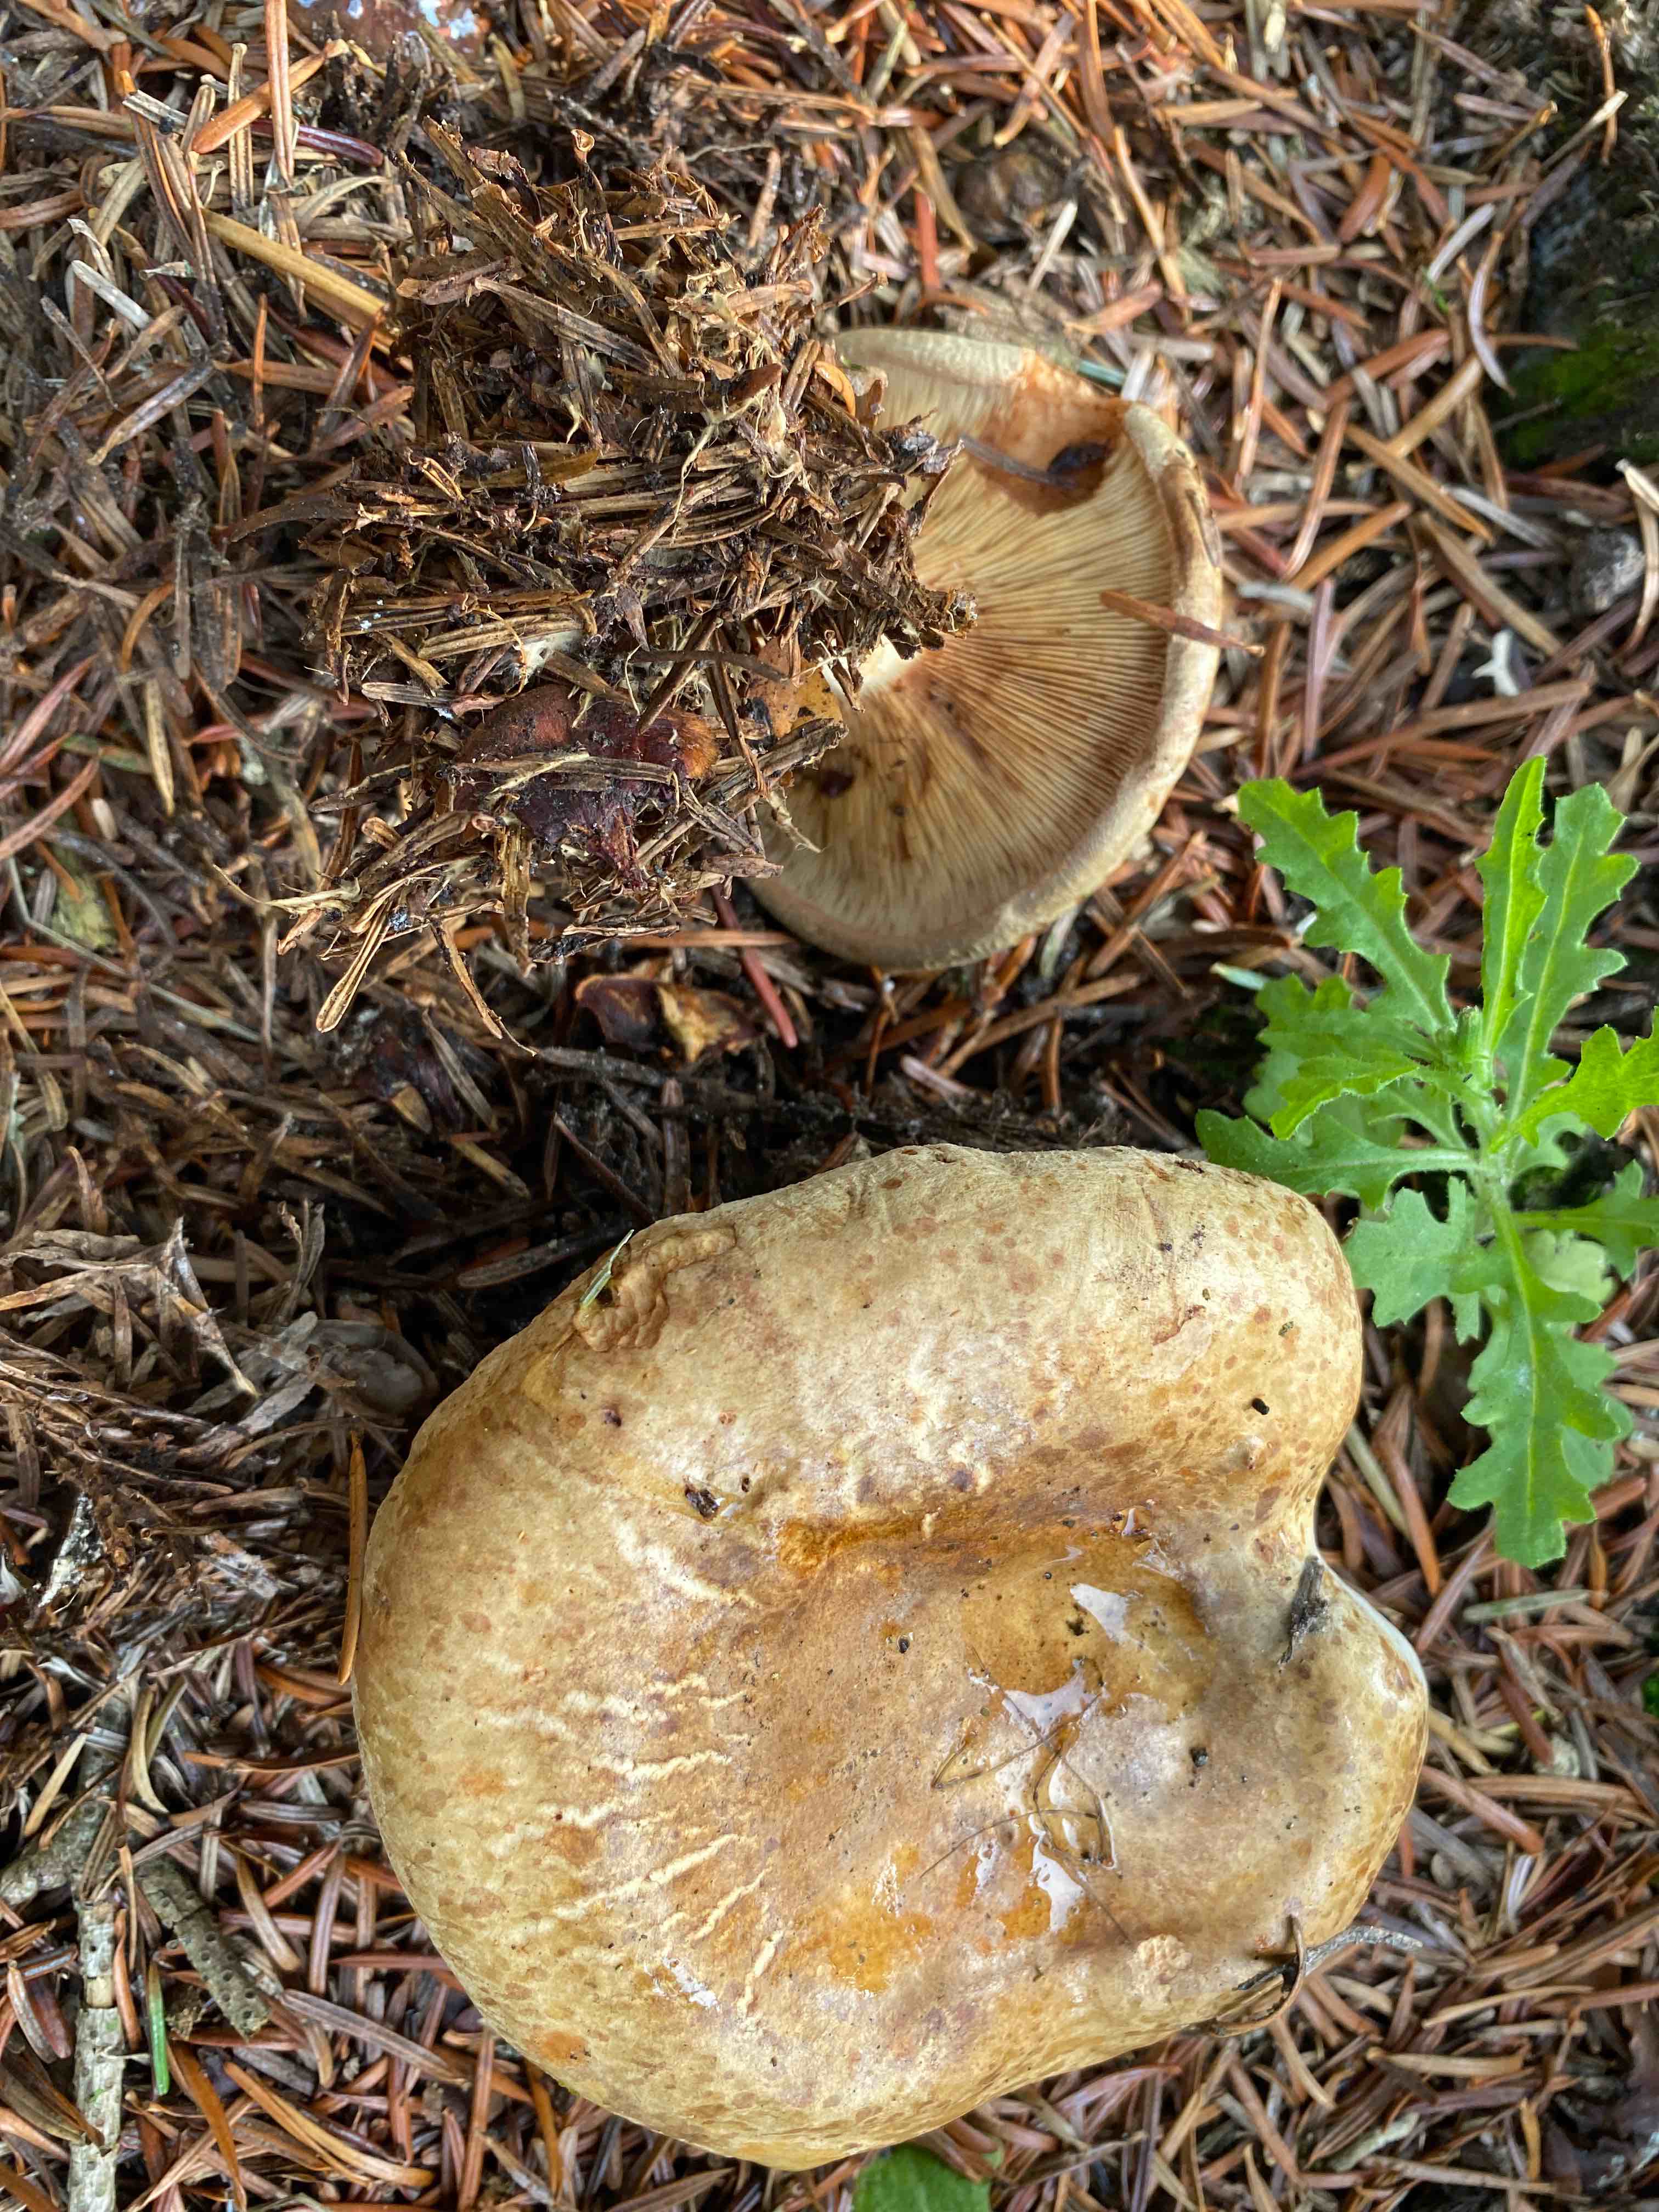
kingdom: Fungi
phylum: Basidiomycota
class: Agaricomycetes
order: Boletales
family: Paxillaceae
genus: Paxillus
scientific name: Paxillus involutus
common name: almindelig netbladhat
